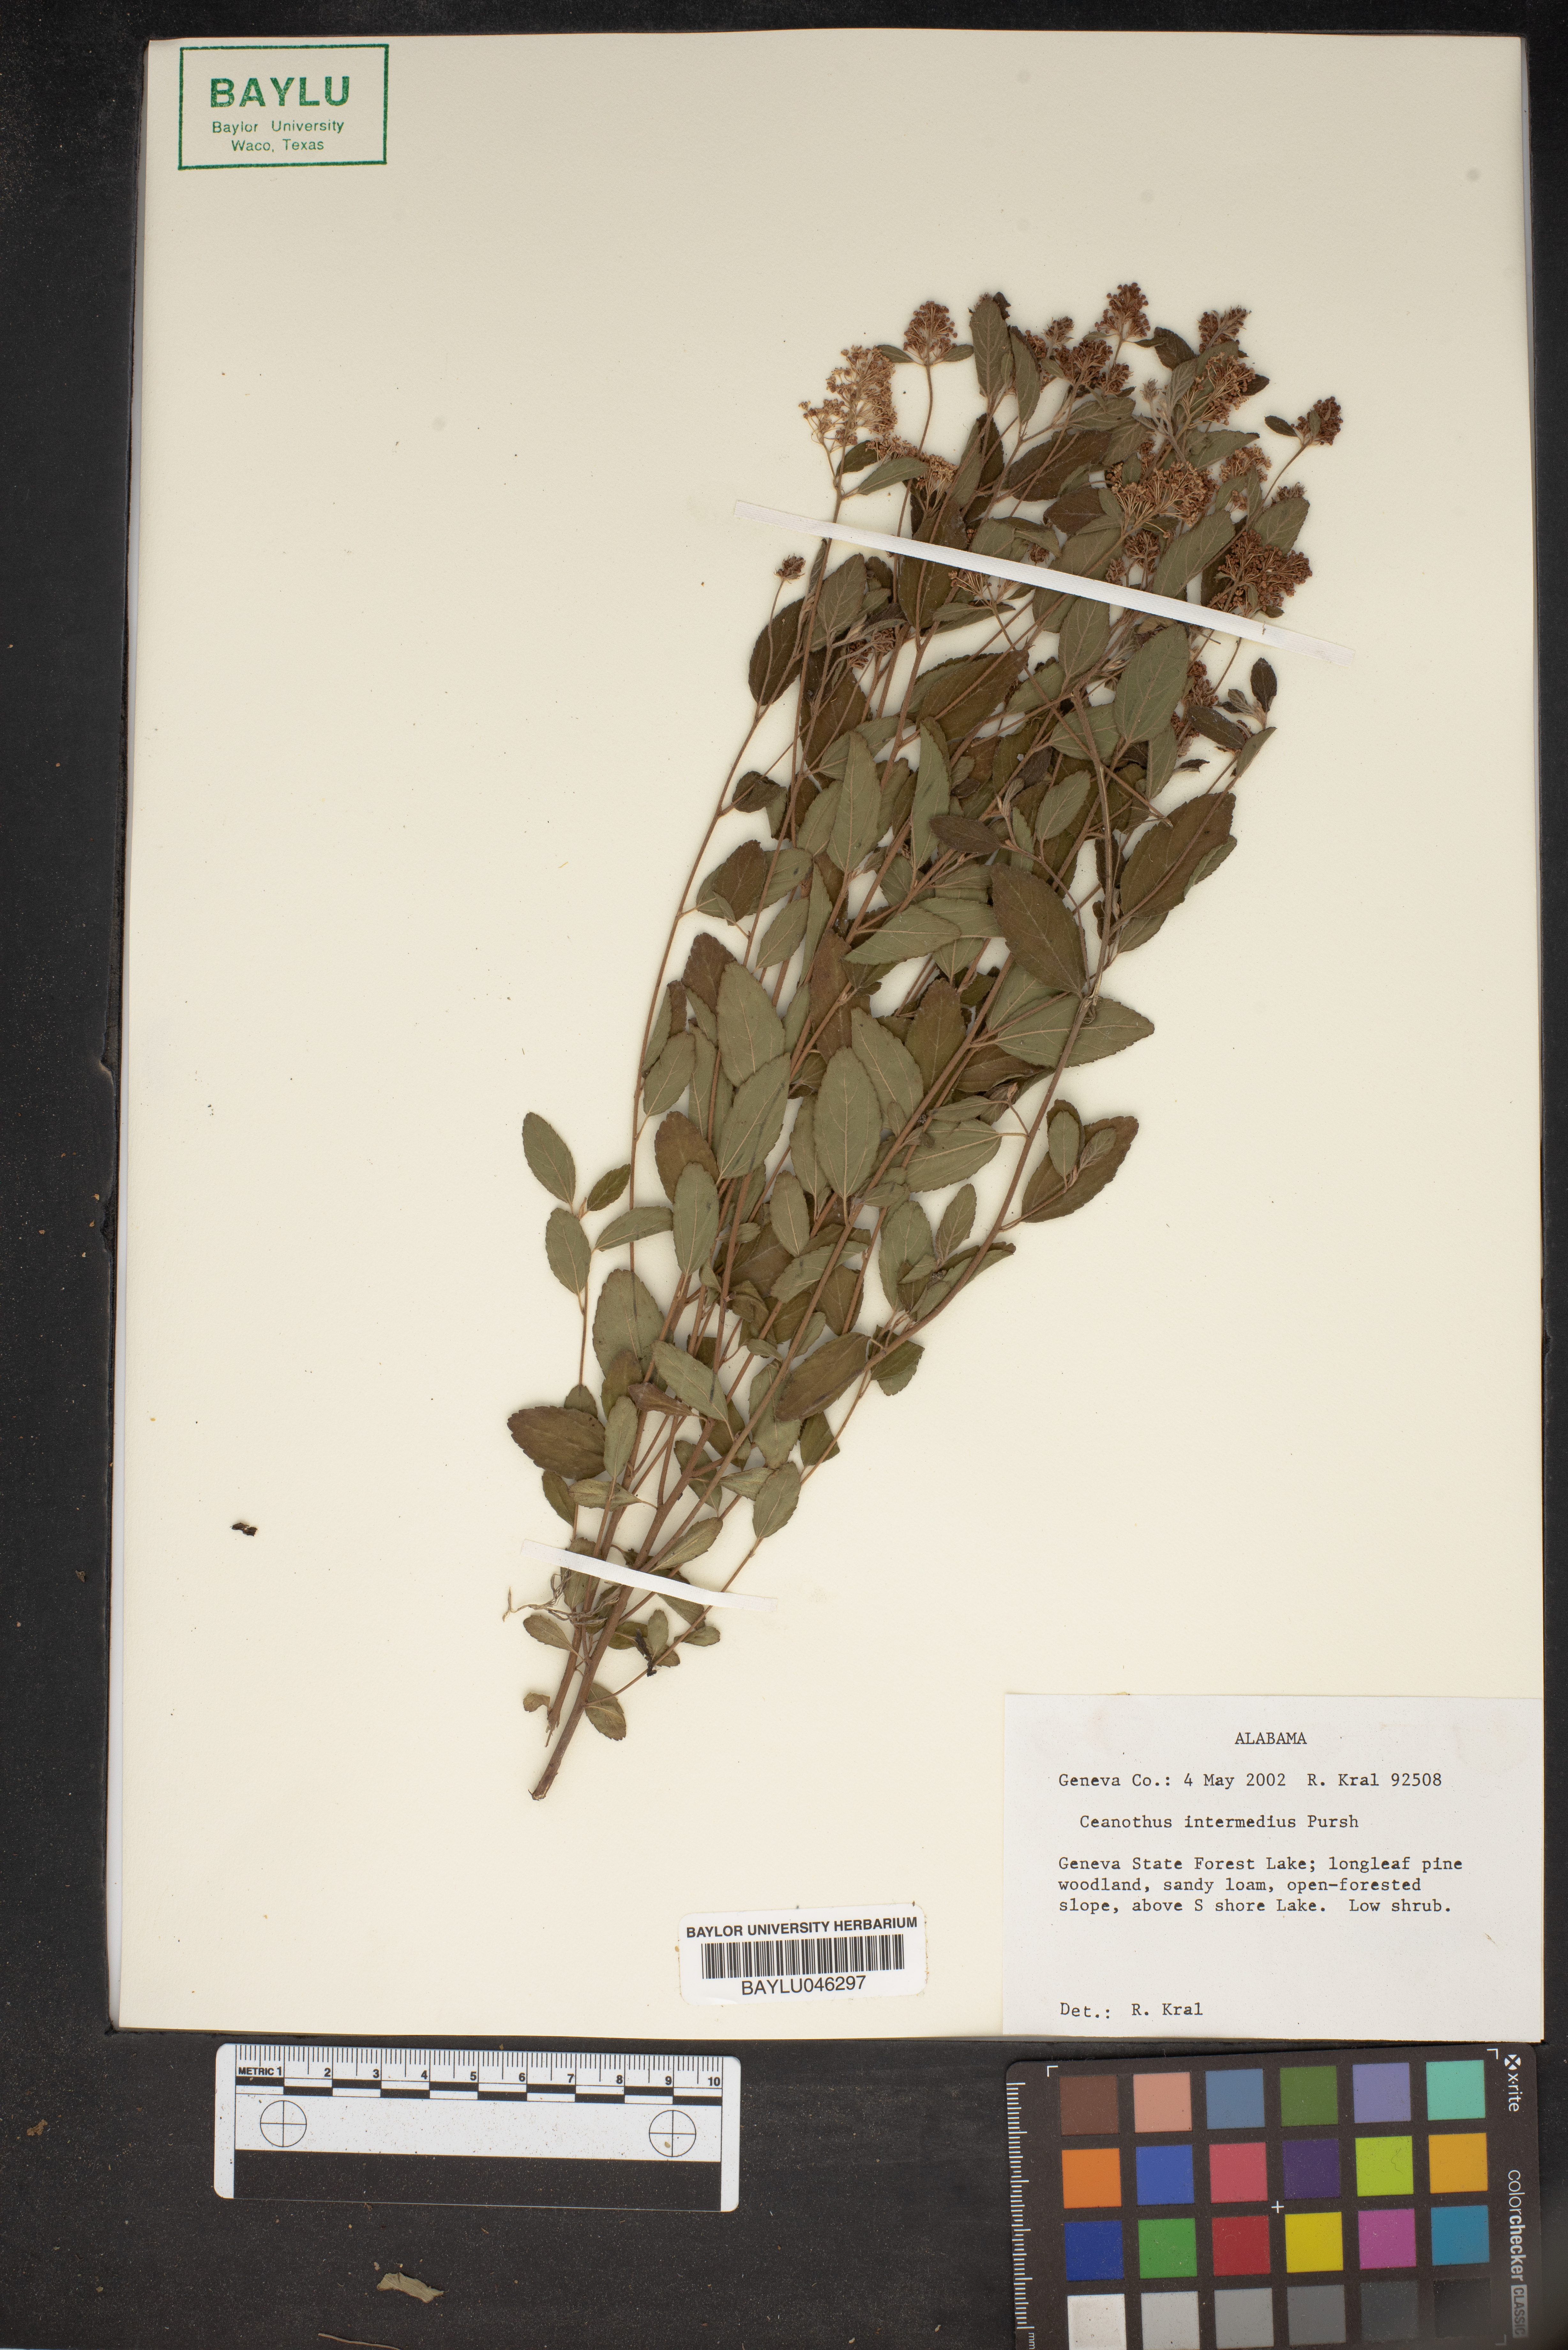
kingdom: Plantae
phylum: Tracheophyta
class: Magnoliopsida
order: Rosales
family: Rhamnaceae
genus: Ceanothus
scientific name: Ceanothus americanus
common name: Redroot
